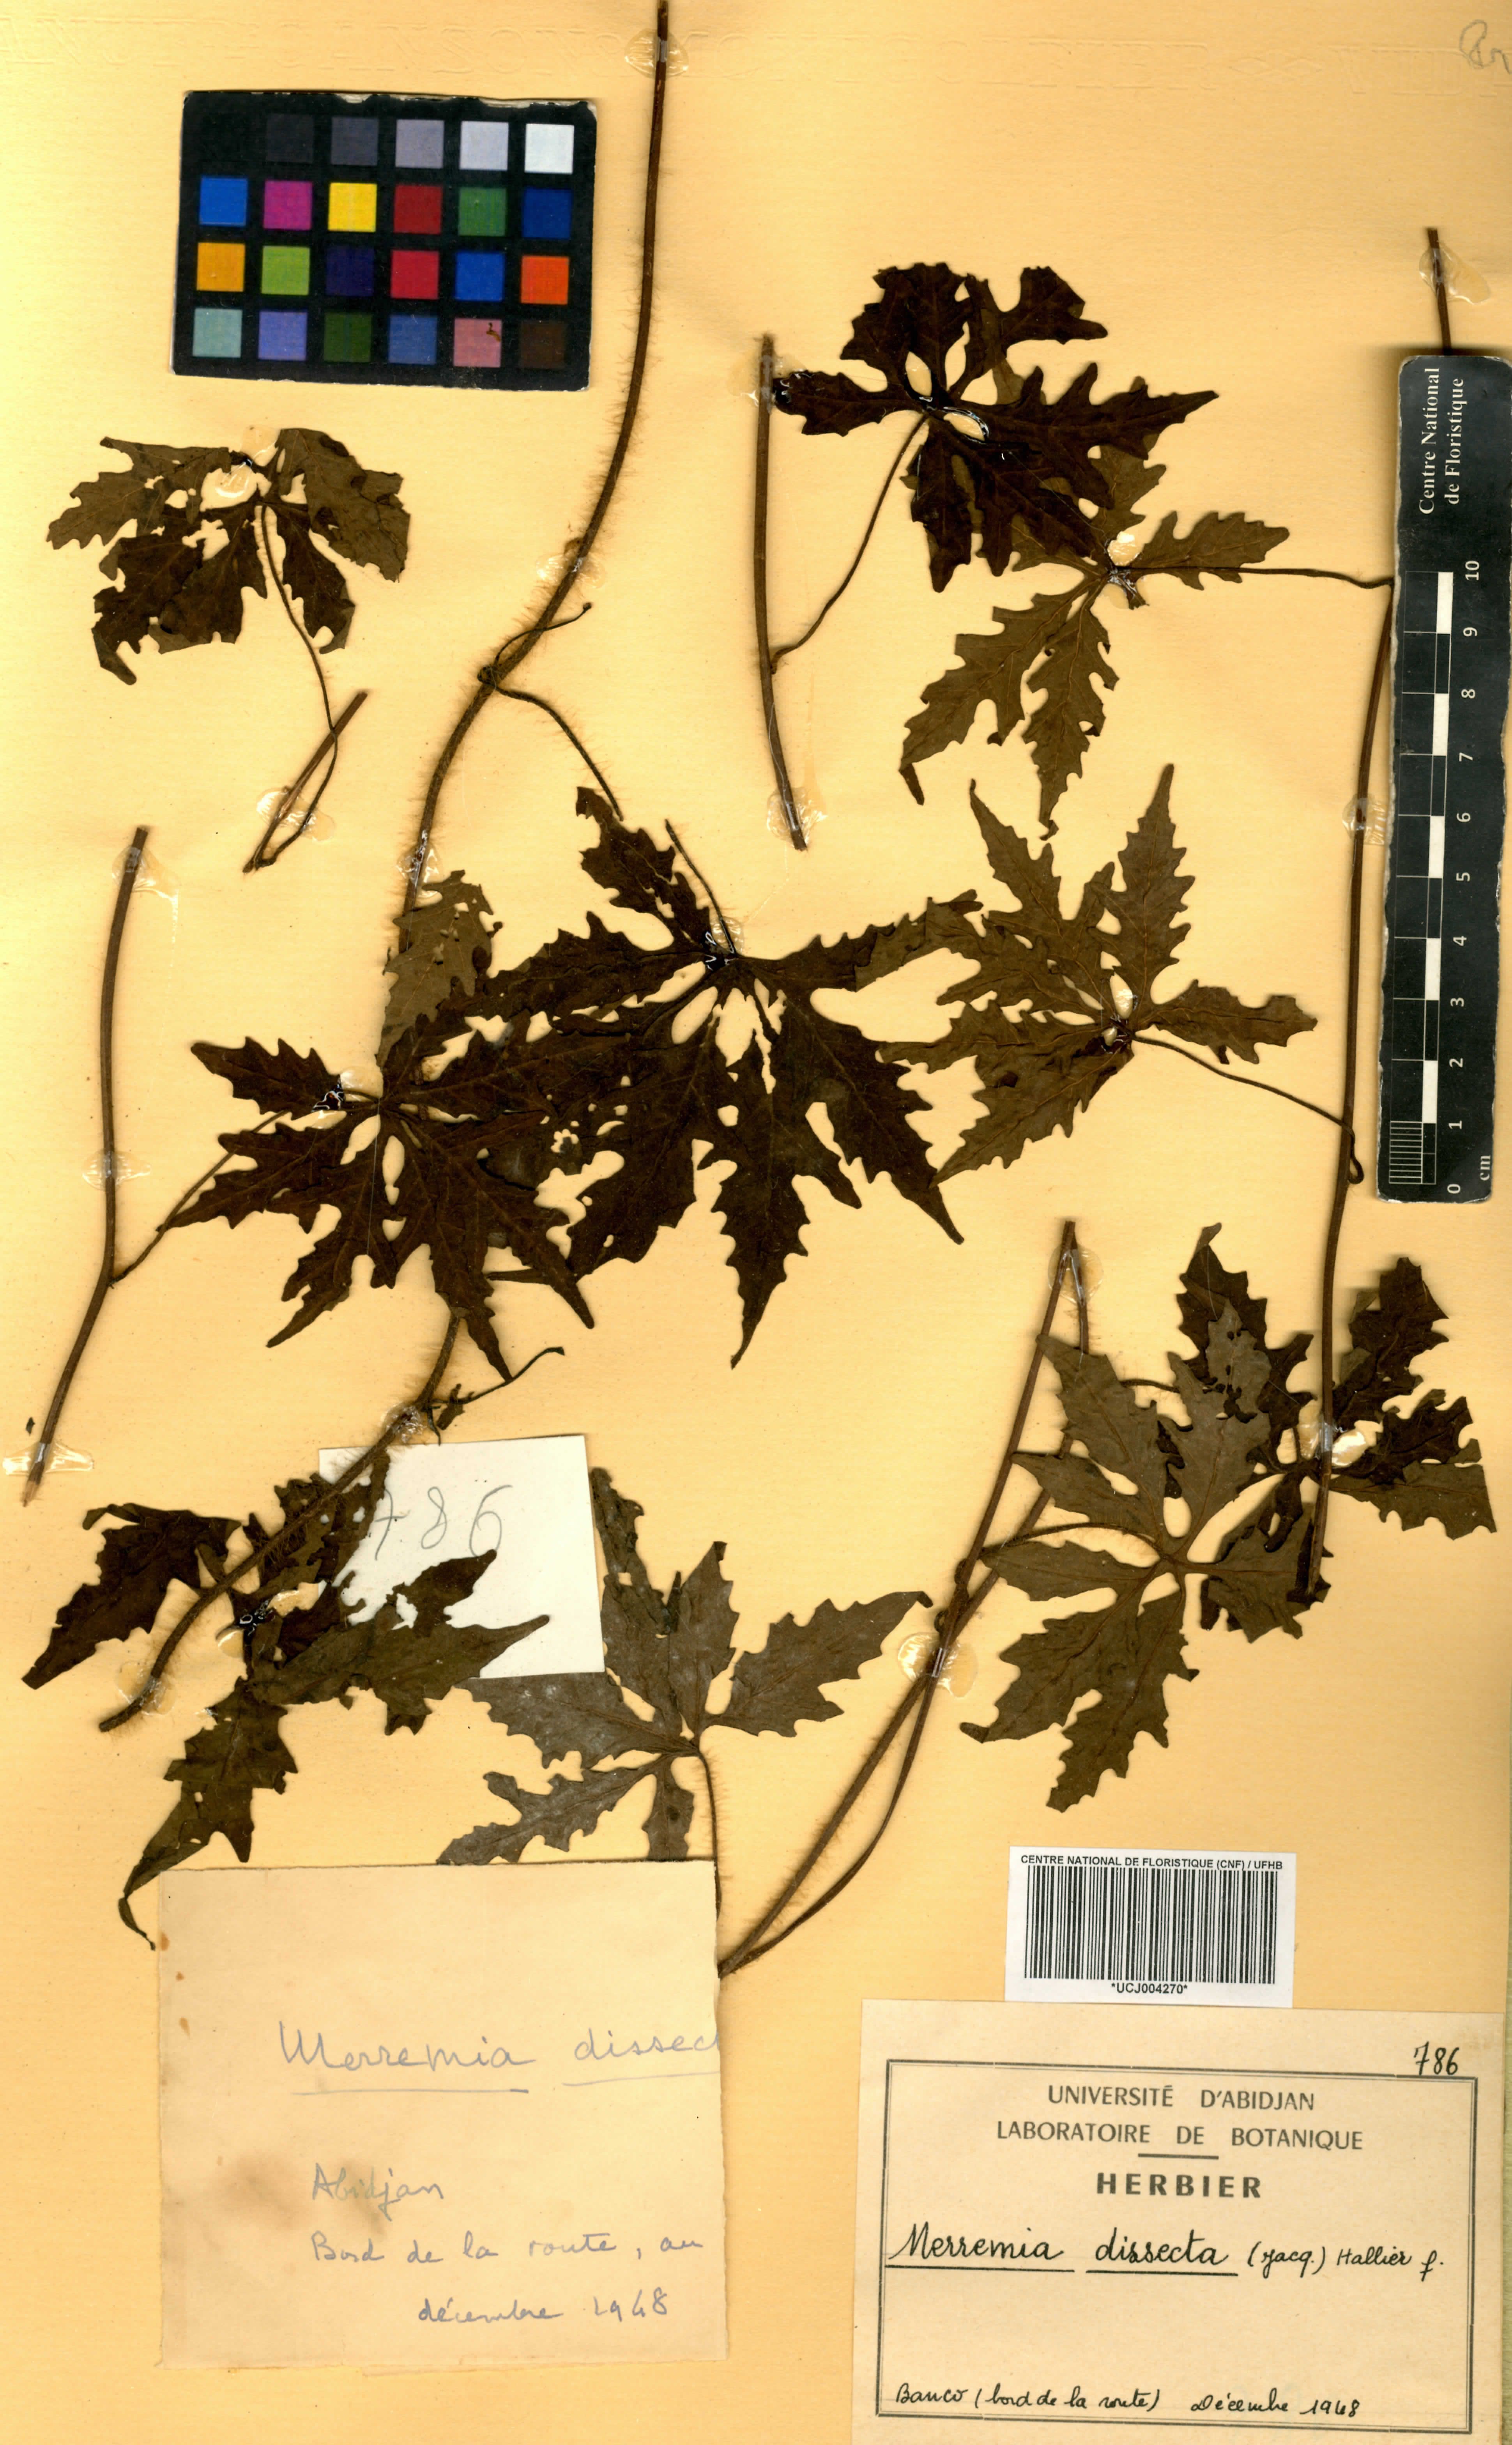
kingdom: Plantae
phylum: Tracheophyta
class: Magnoliopsida
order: Solanales
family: Convolvulaceae
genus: Distimake
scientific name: Distimake dissectus
